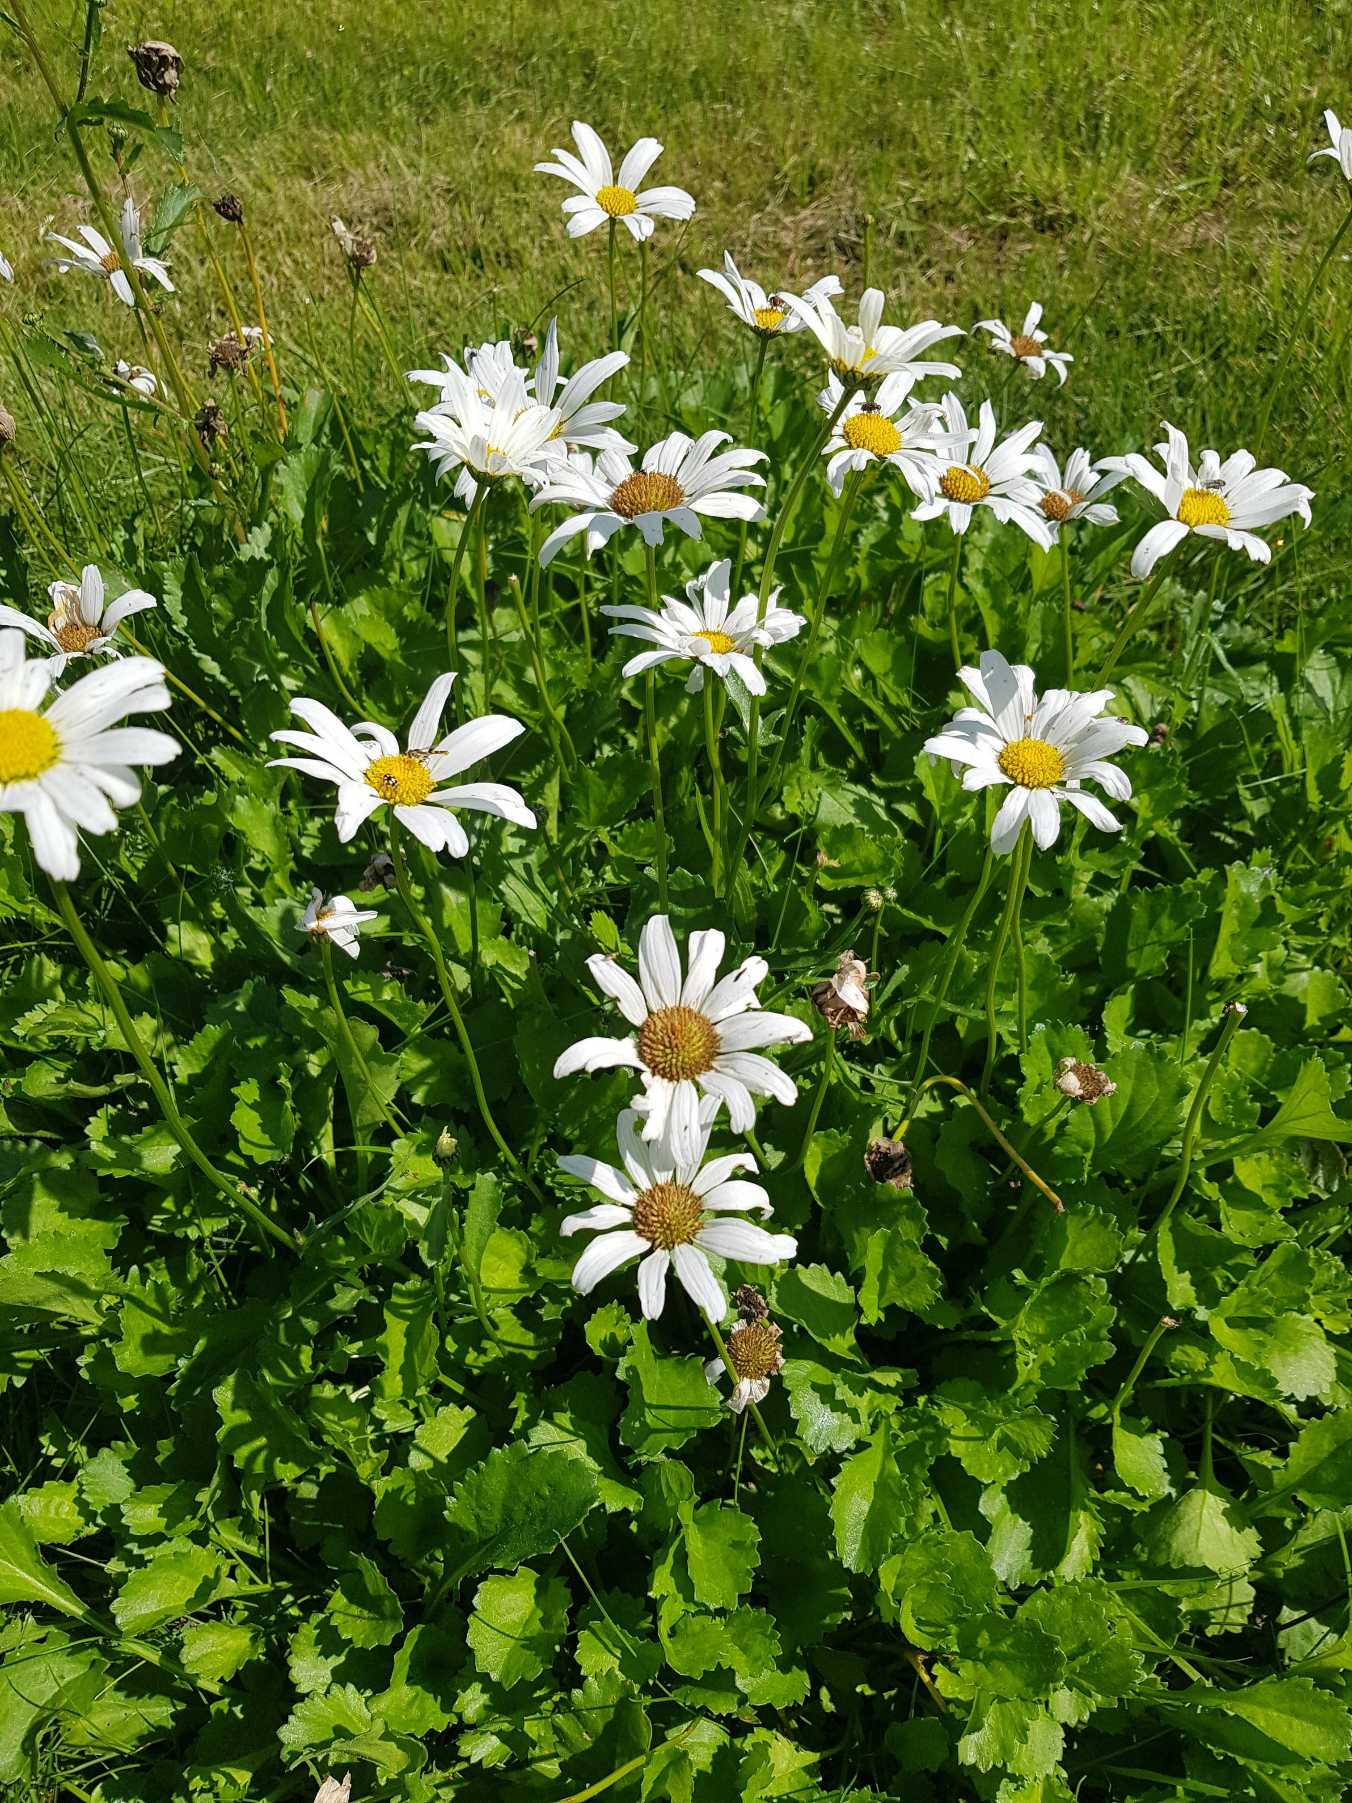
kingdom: Plantae
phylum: Tracheophyta
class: Magnoliopsida
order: Asterales
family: Asteraceae
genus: Leucanthemum
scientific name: Leucanthemum vulgare
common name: Hvid okseøje
